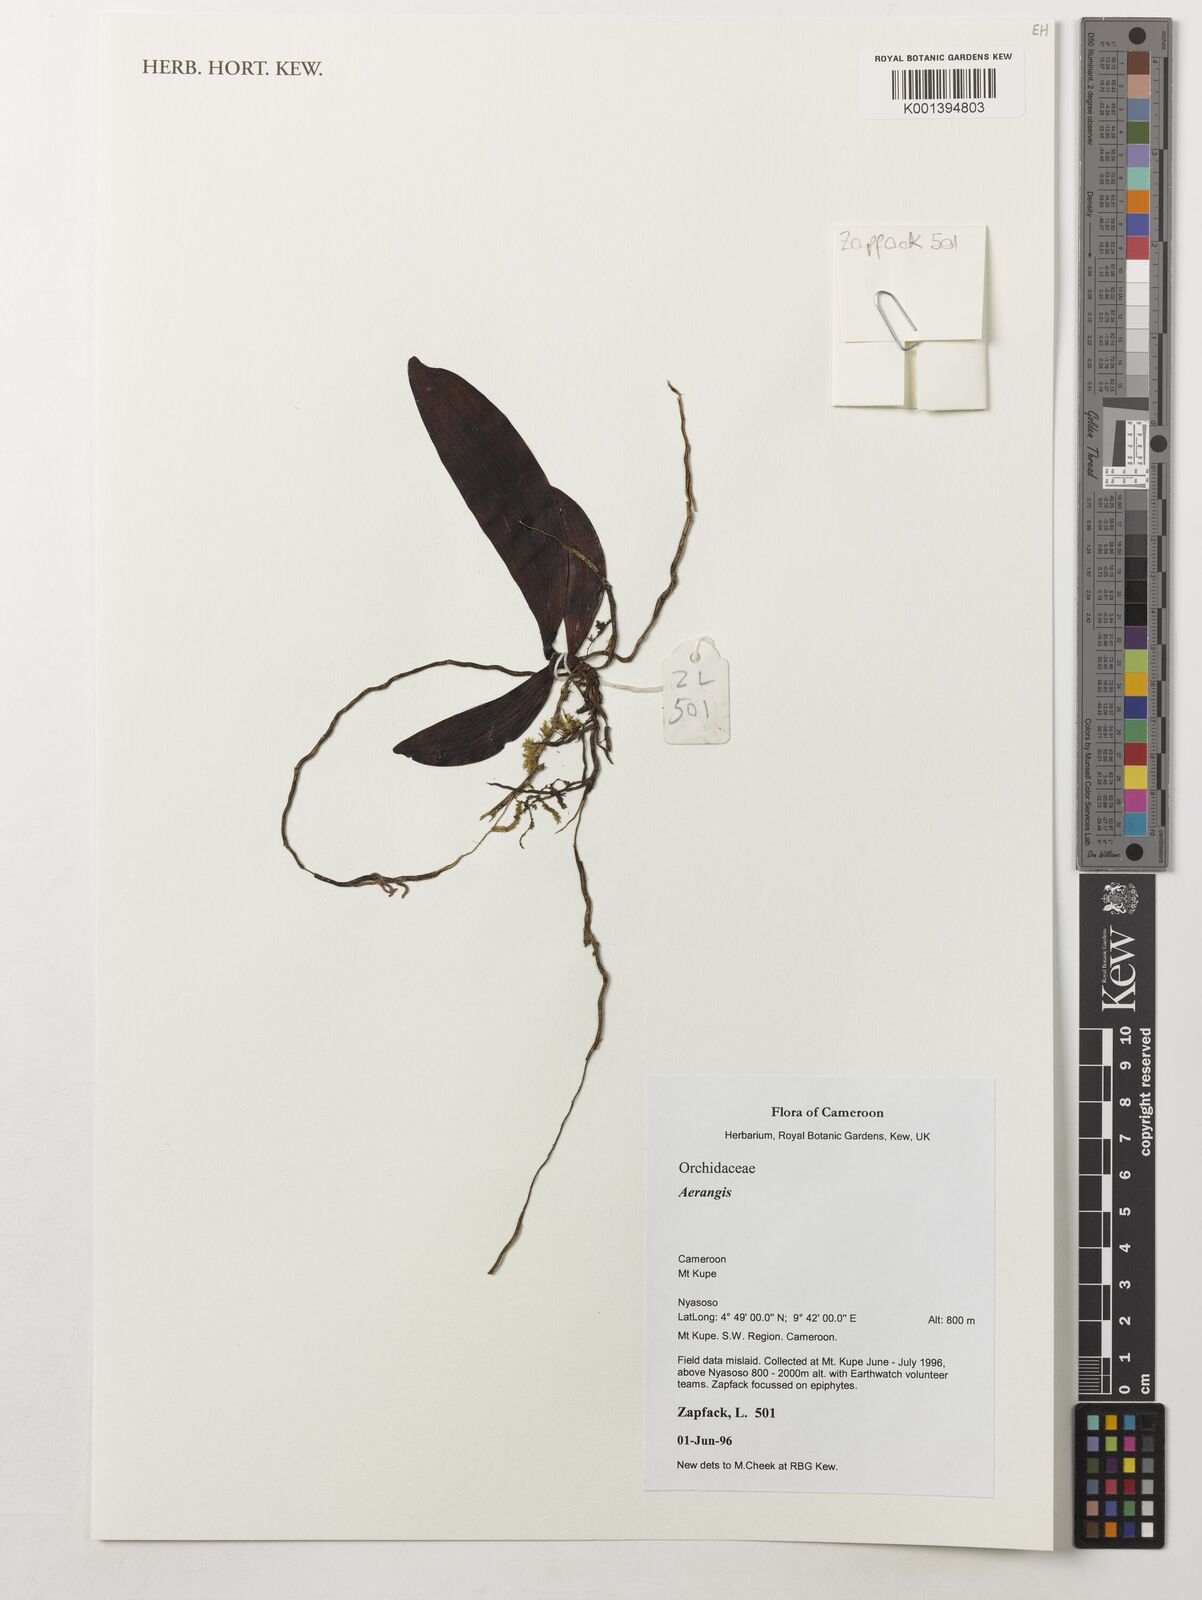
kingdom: Plantae
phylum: Tracheophyta
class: Liliopsida
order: Asparagales
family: Orchidaceae
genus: Aerangis
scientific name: Aerangis
